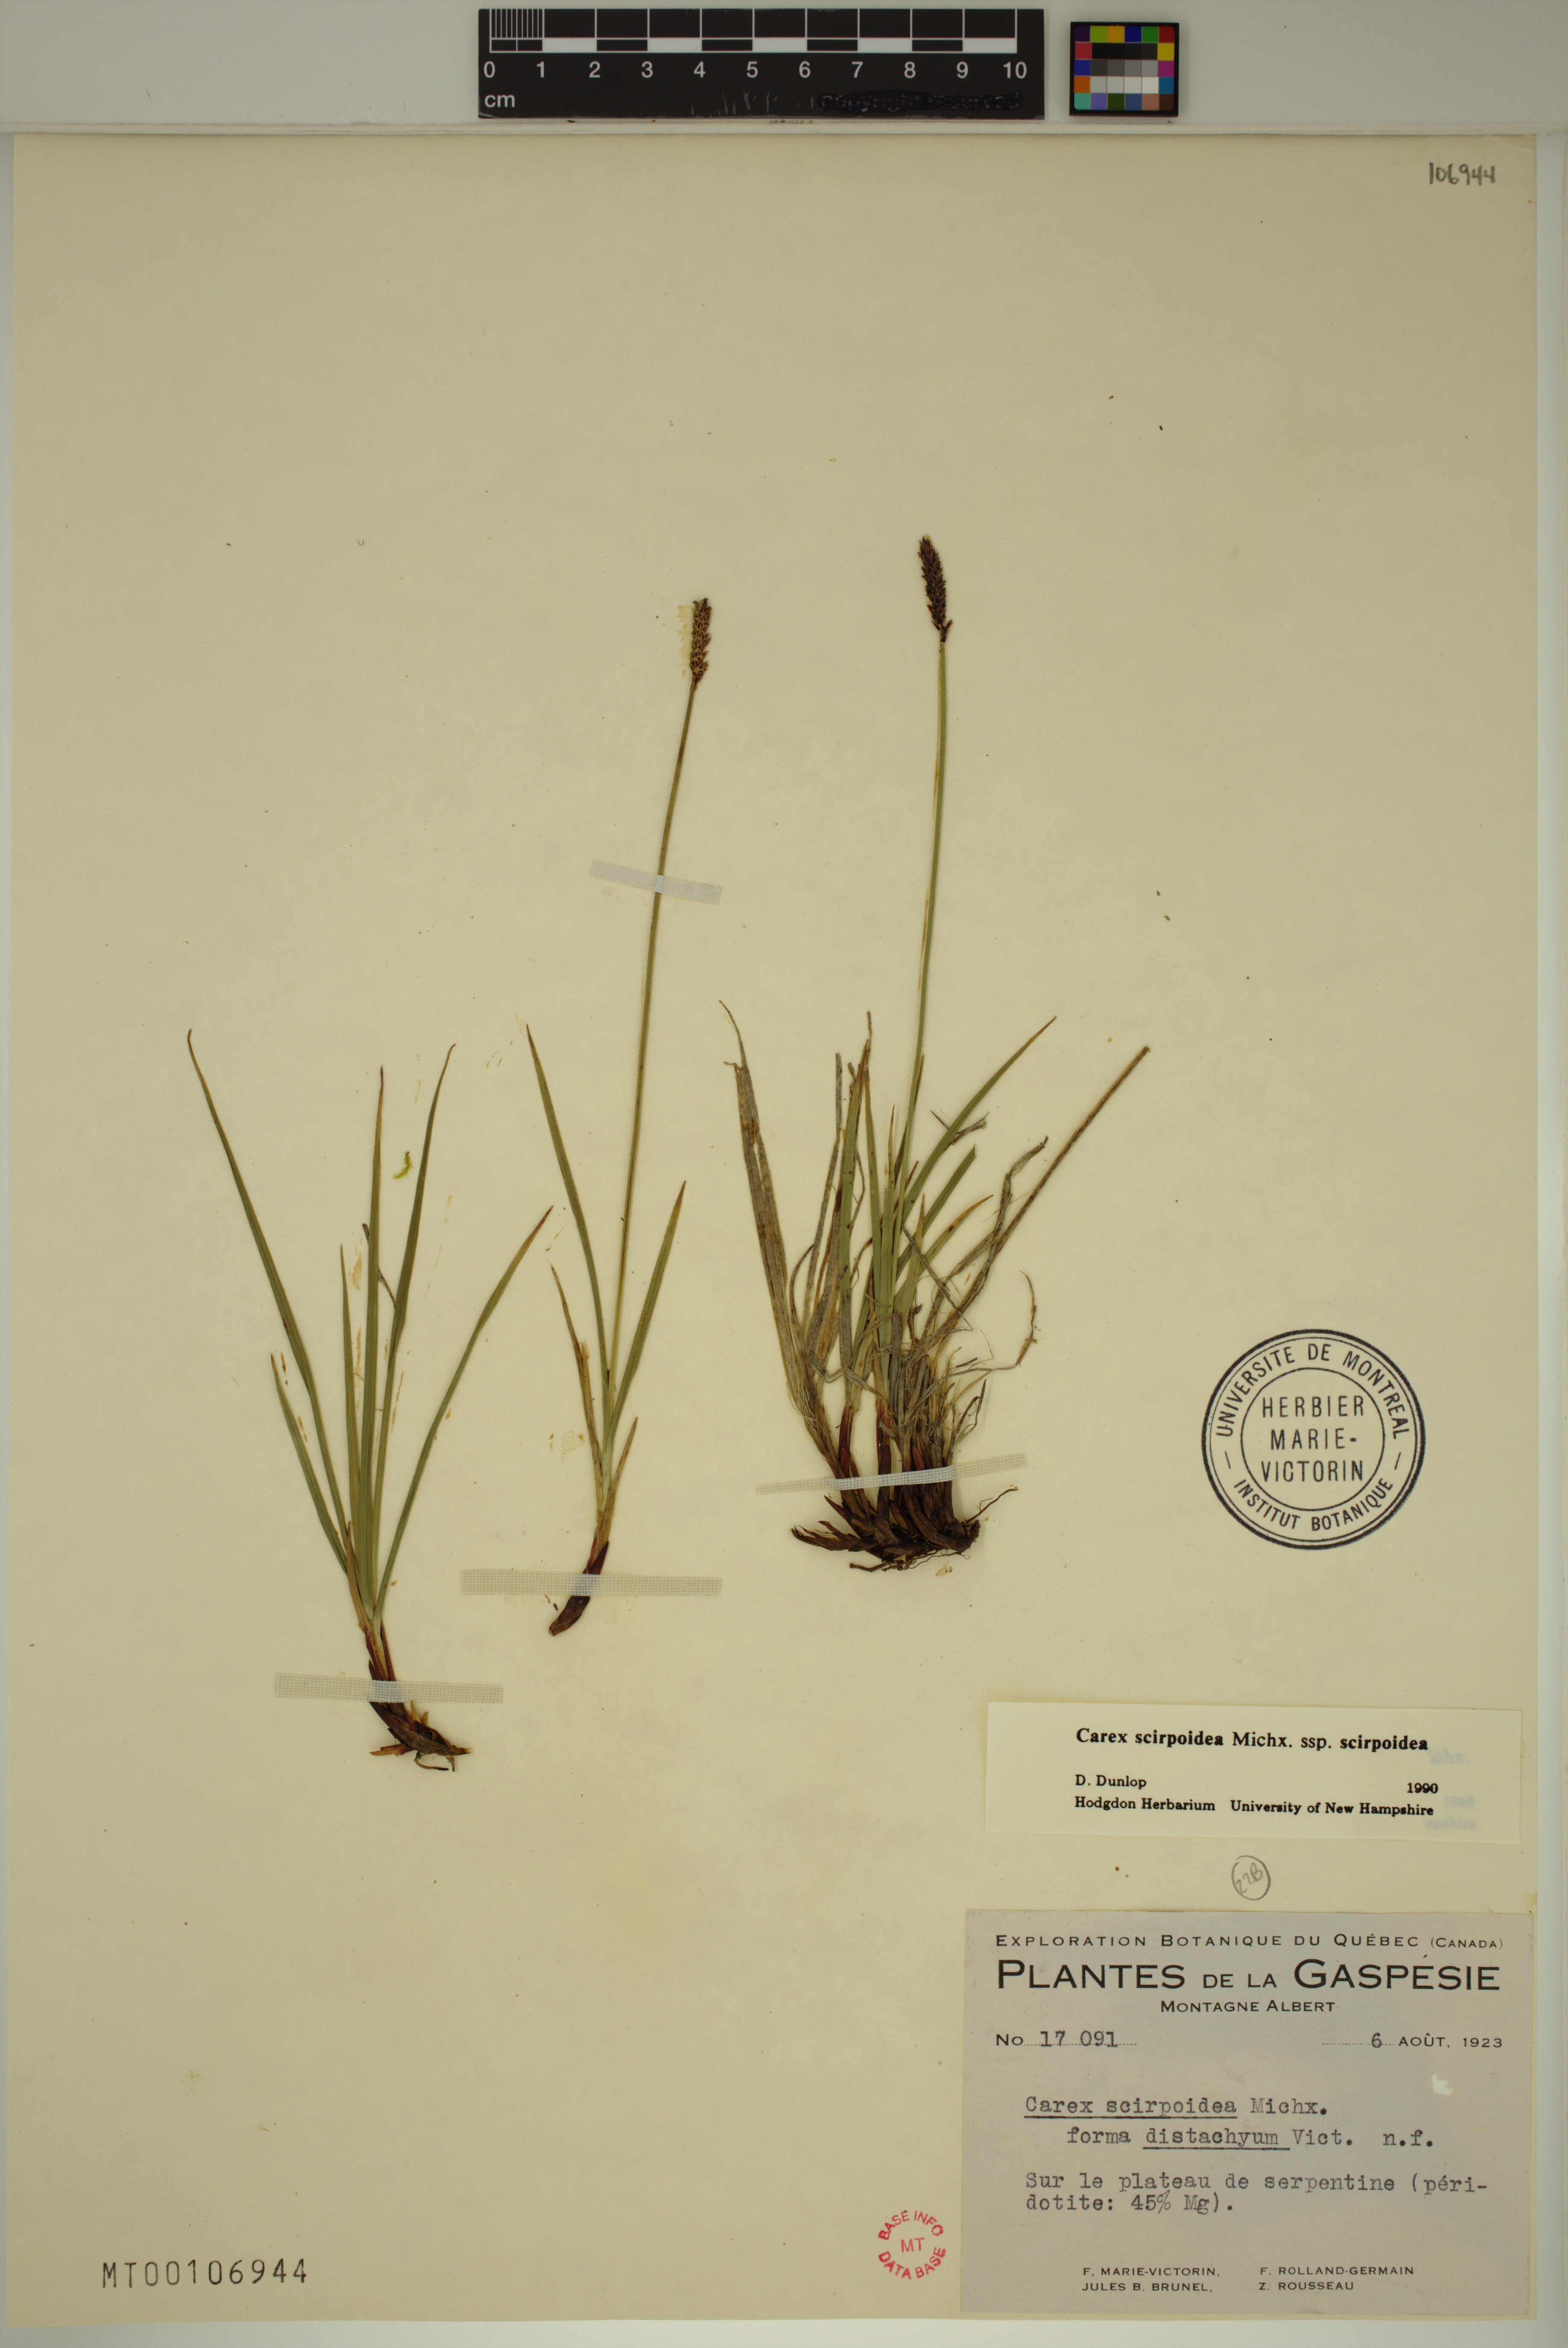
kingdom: Plantae
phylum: Tracheophyta
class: Liliopsida
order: Poales
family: Cyperaceae
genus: Carex
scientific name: Carex scirpoidea
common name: Canada single-spike sedge
